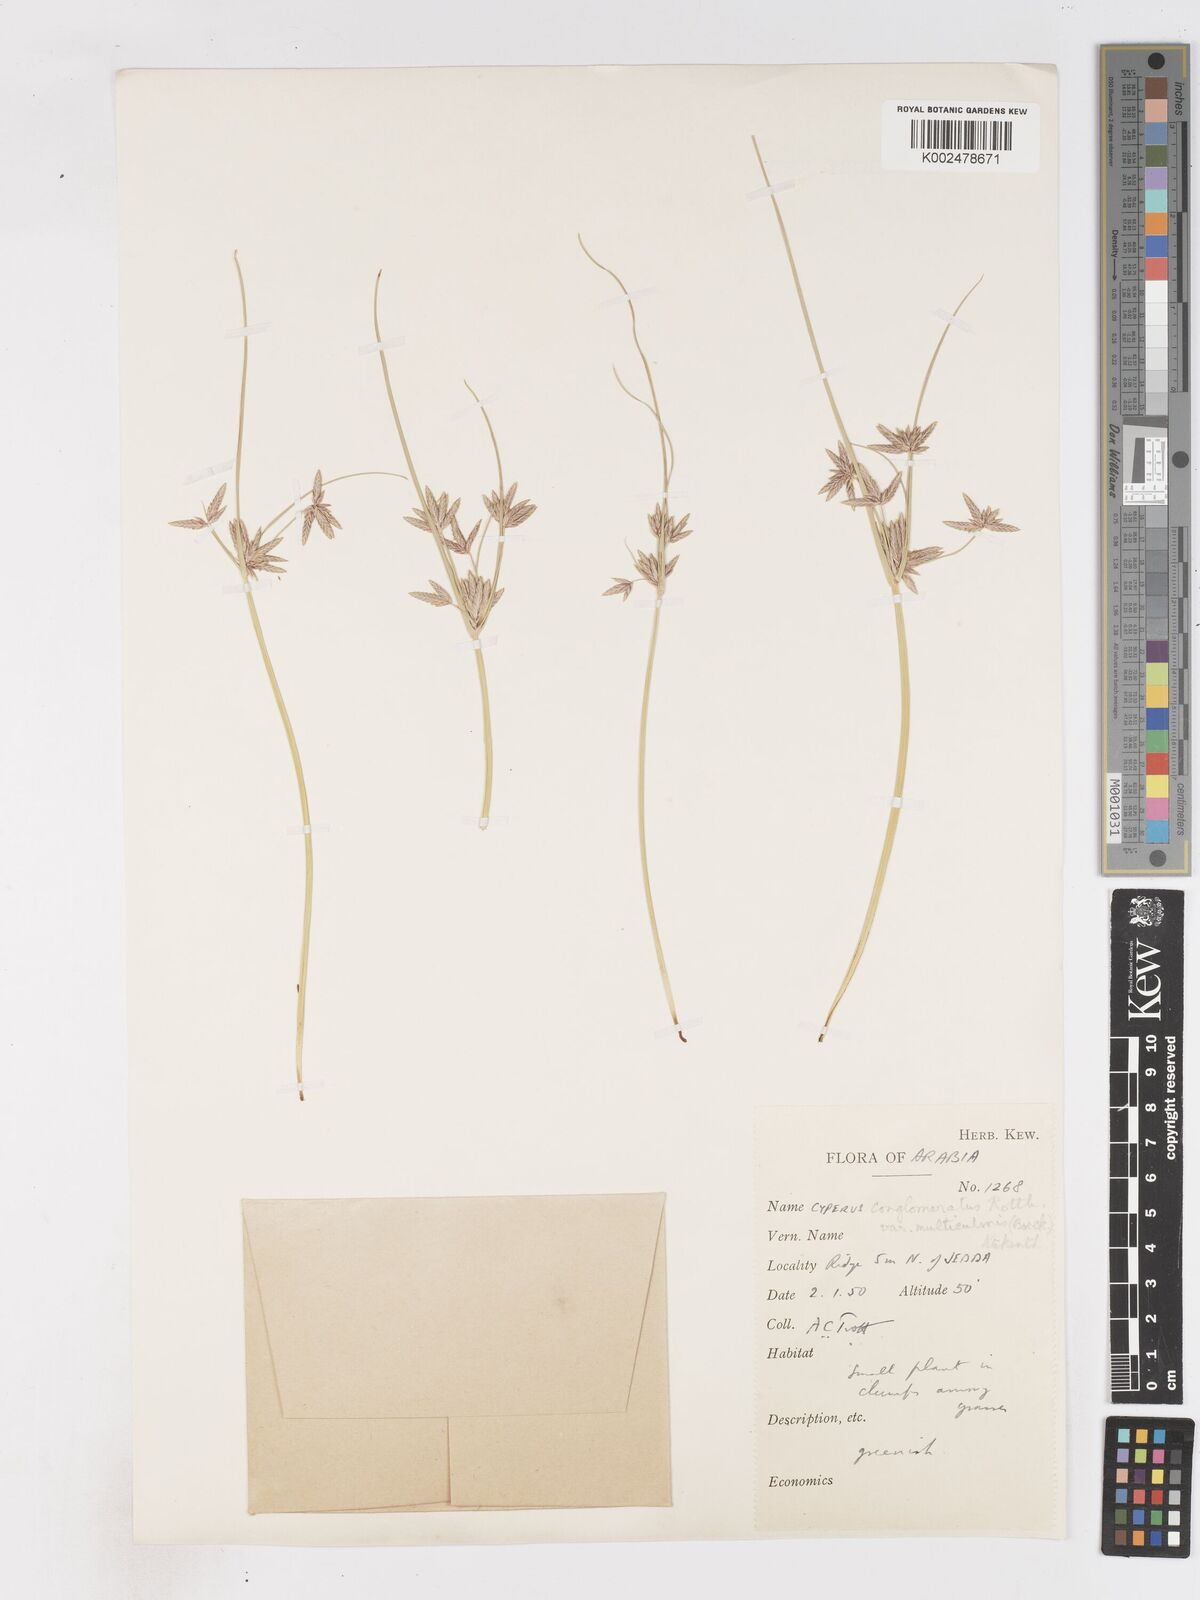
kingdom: Plantae
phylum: Tracheophyta
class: Liliopsida
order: Poales
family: Cyperaceae
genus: Cyperus
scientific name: Cyperus conglomeratus
